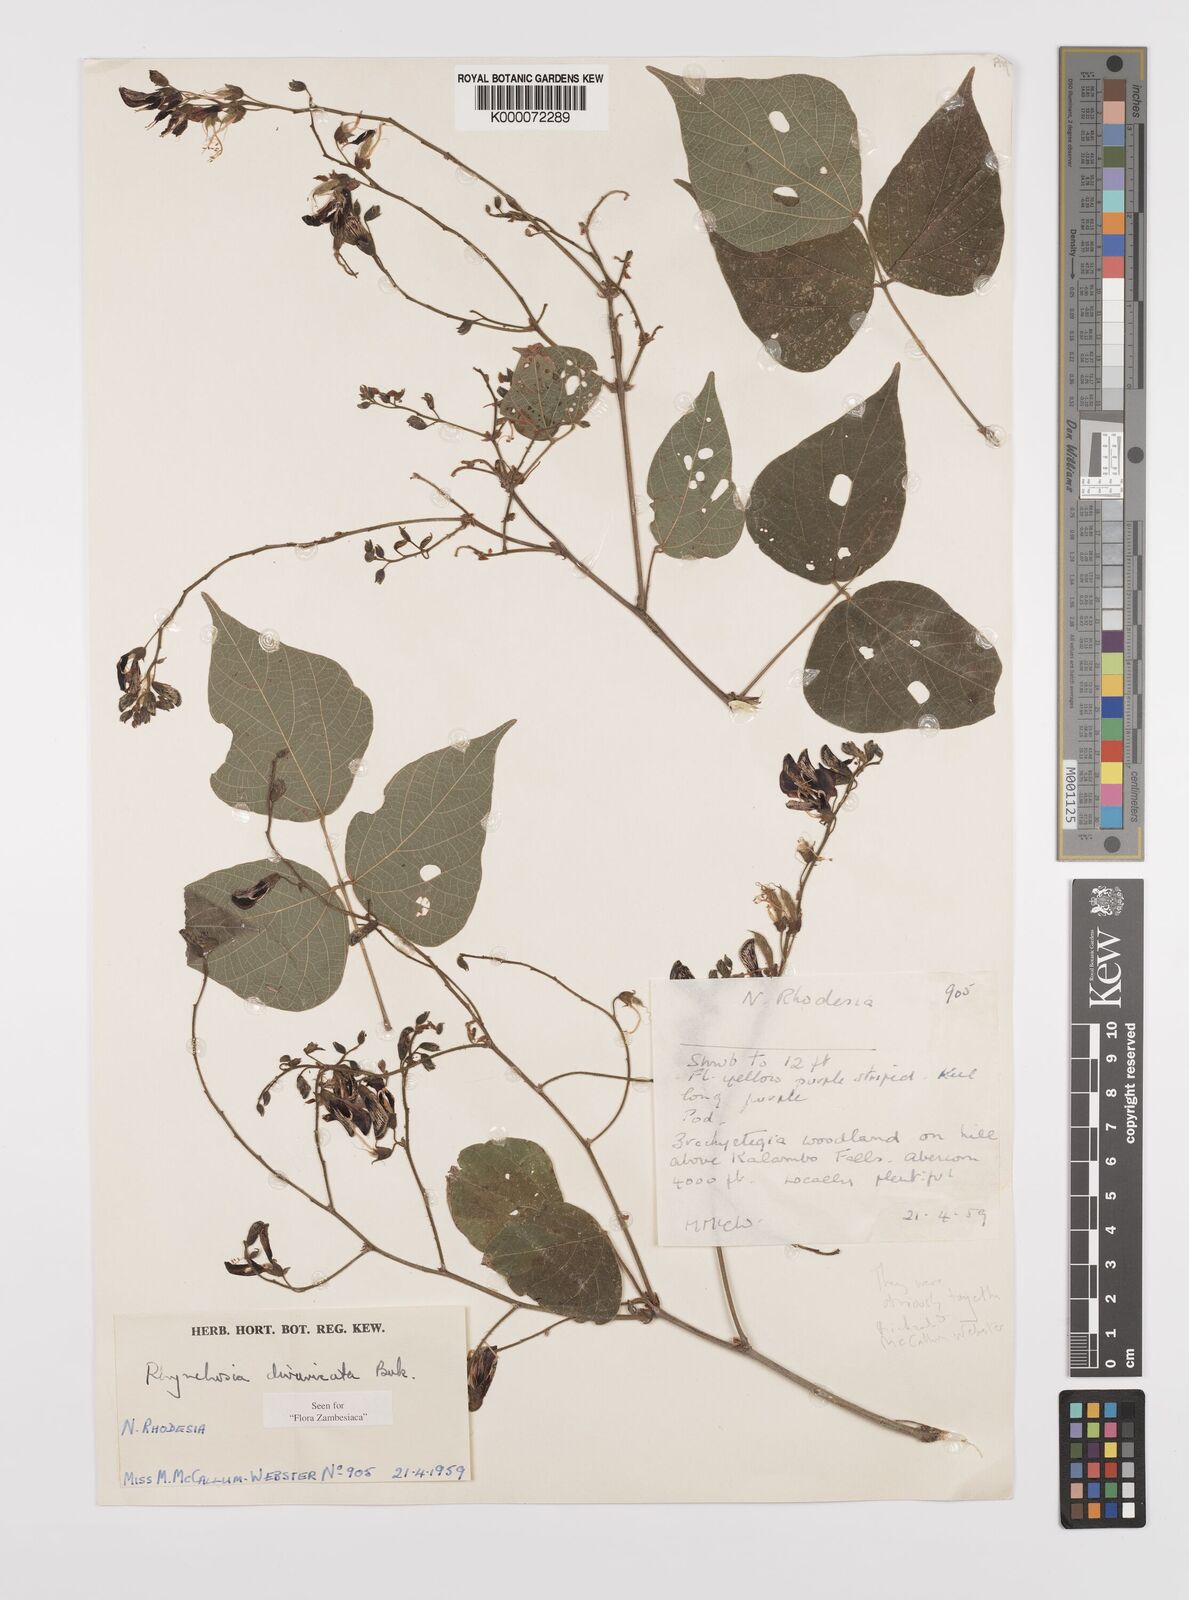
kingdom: Plantae
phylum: Tracheophyta
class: Magnoliopsida
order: Fabales
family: Fabaceae
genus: Rhynchosia
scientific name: Rhynchosia divaricata
